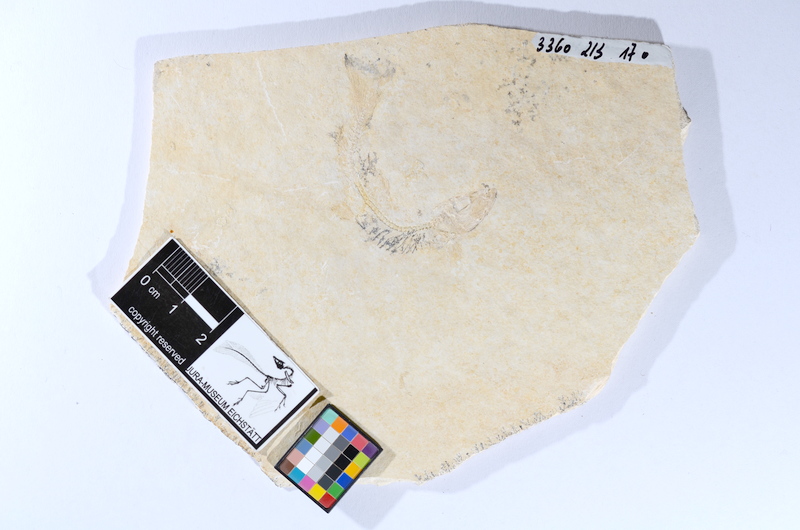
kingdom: Animalia
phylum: Chordata
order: Salmoniformes
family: Orthogonikleithridae
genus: Leptolepides
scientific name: Leptolepides sprattiformis
